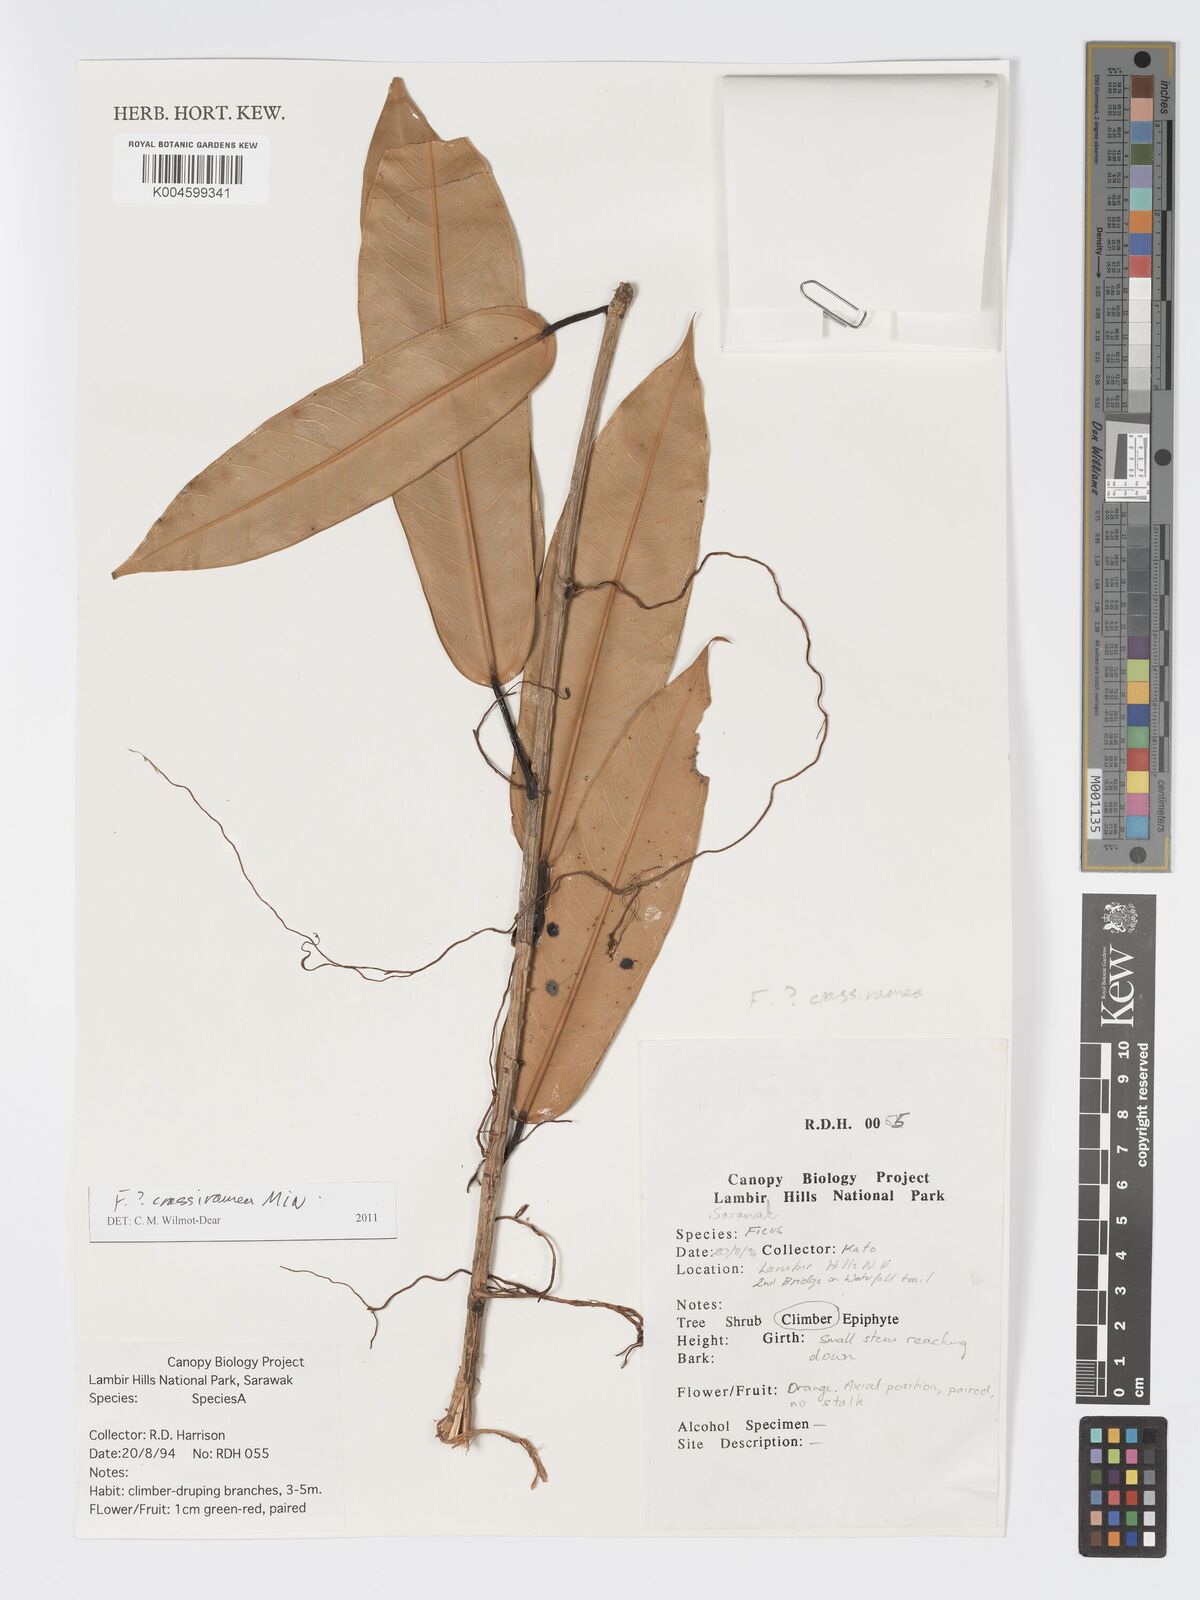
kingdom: Plantae
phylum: Tracheophyta
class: Magnoliopsida
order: Rosales
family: Moraceae
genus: Ficus
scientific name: Ficus crassiramea
